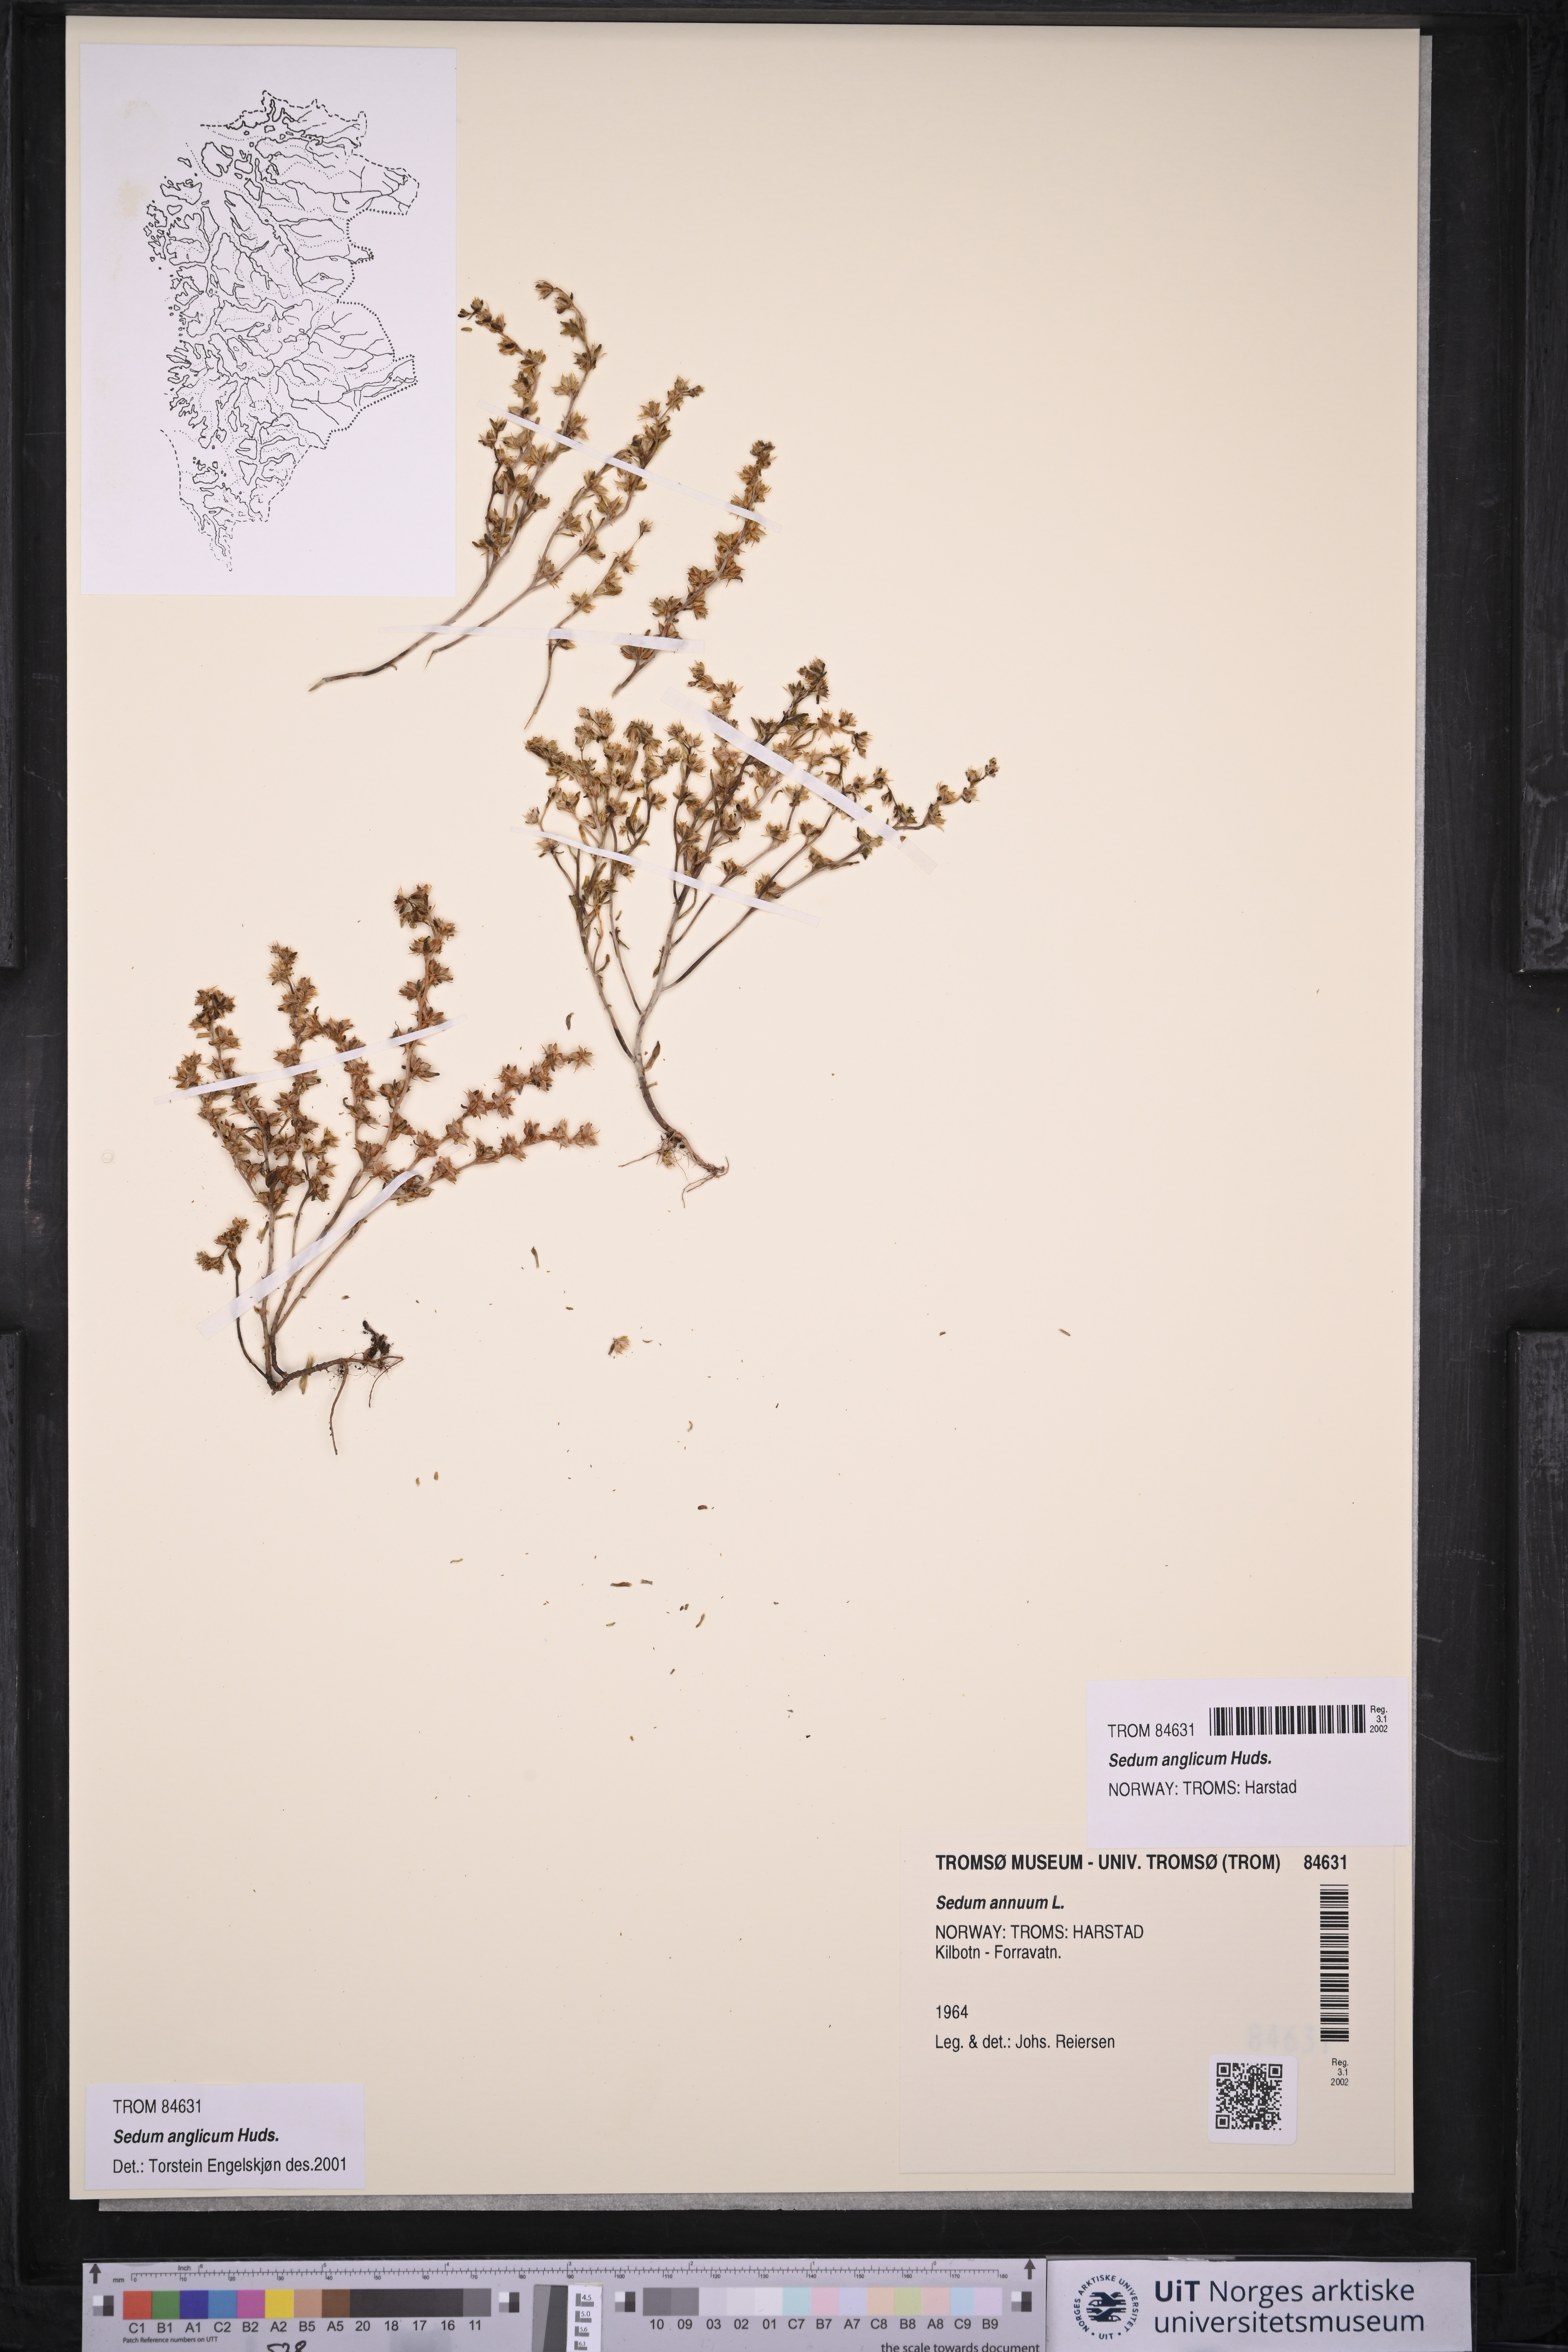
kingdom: Plantae
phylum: Tracheophyta
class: Magnoliopsida
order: Saxifragales
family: Crassulaceae
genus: Sedum
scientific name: Sedum annuum
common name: Annual stonecrop
